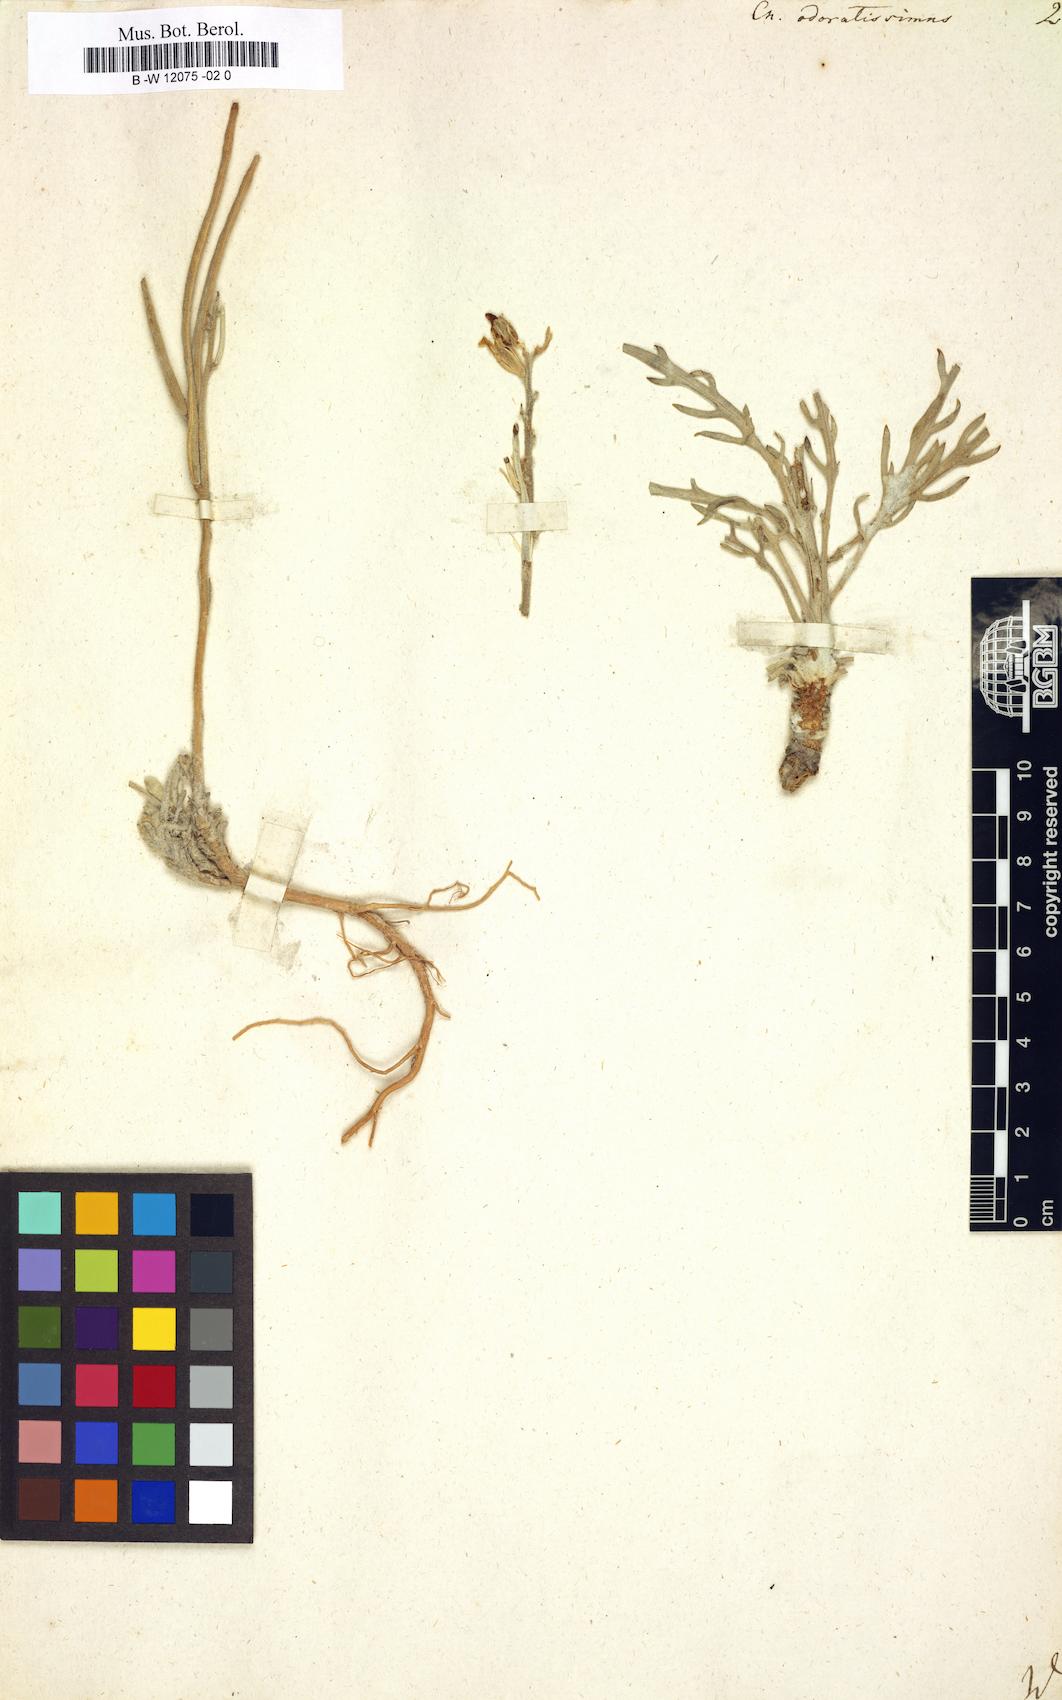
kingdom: Plantae
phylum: Tracheophyta
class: Magnoliopsida
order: Brassicales
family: Brassicaceae
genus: Matthiola
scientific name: Matthiola odoratissima
